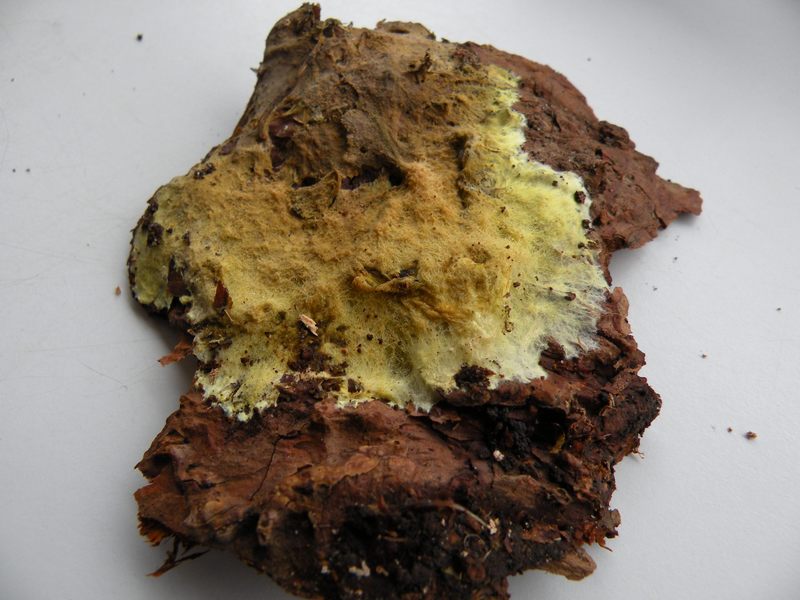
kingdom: Fungi
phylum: Basidiomycota
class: Agaricomycetes
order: Russulales
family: Xenasmataceae
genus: Xenasmatella
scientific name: Xenasmatella vaga
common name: svovl-strenghinde
